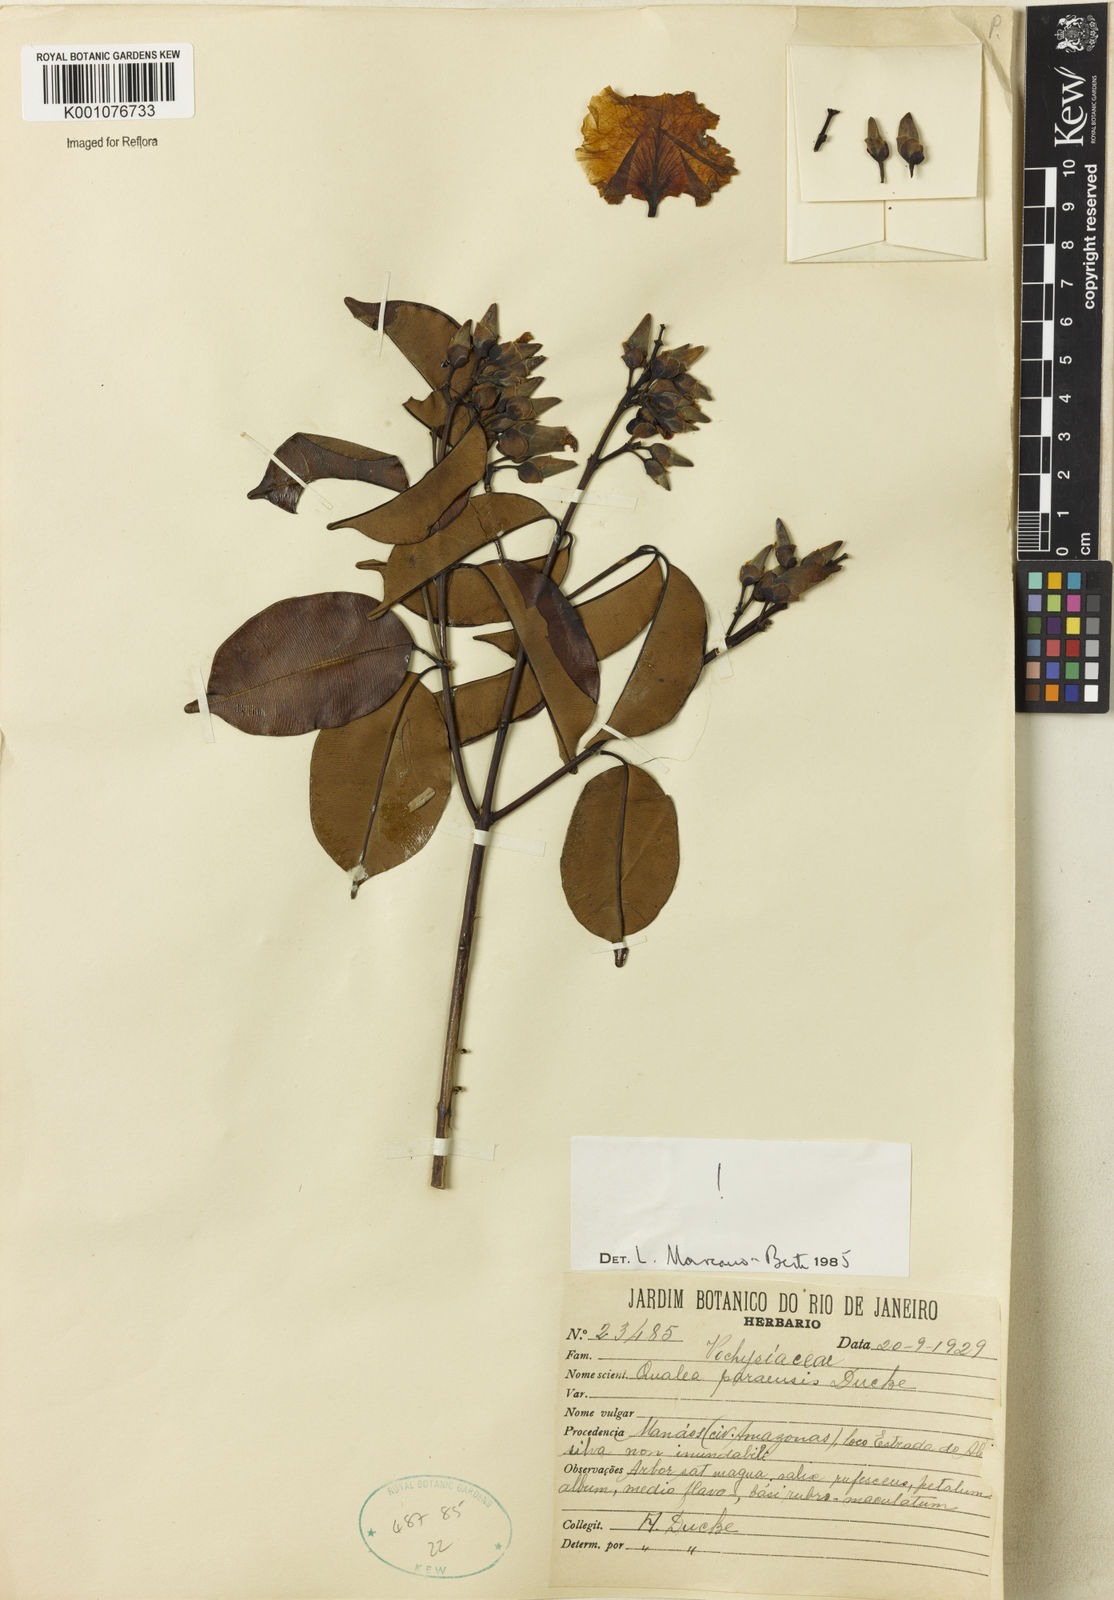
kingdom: Plantae
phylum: Tracheophyta
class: Magnoliopsida
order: Myrtales
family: Vochysiaceae
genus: Qualea
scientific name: Qualea paraensis
